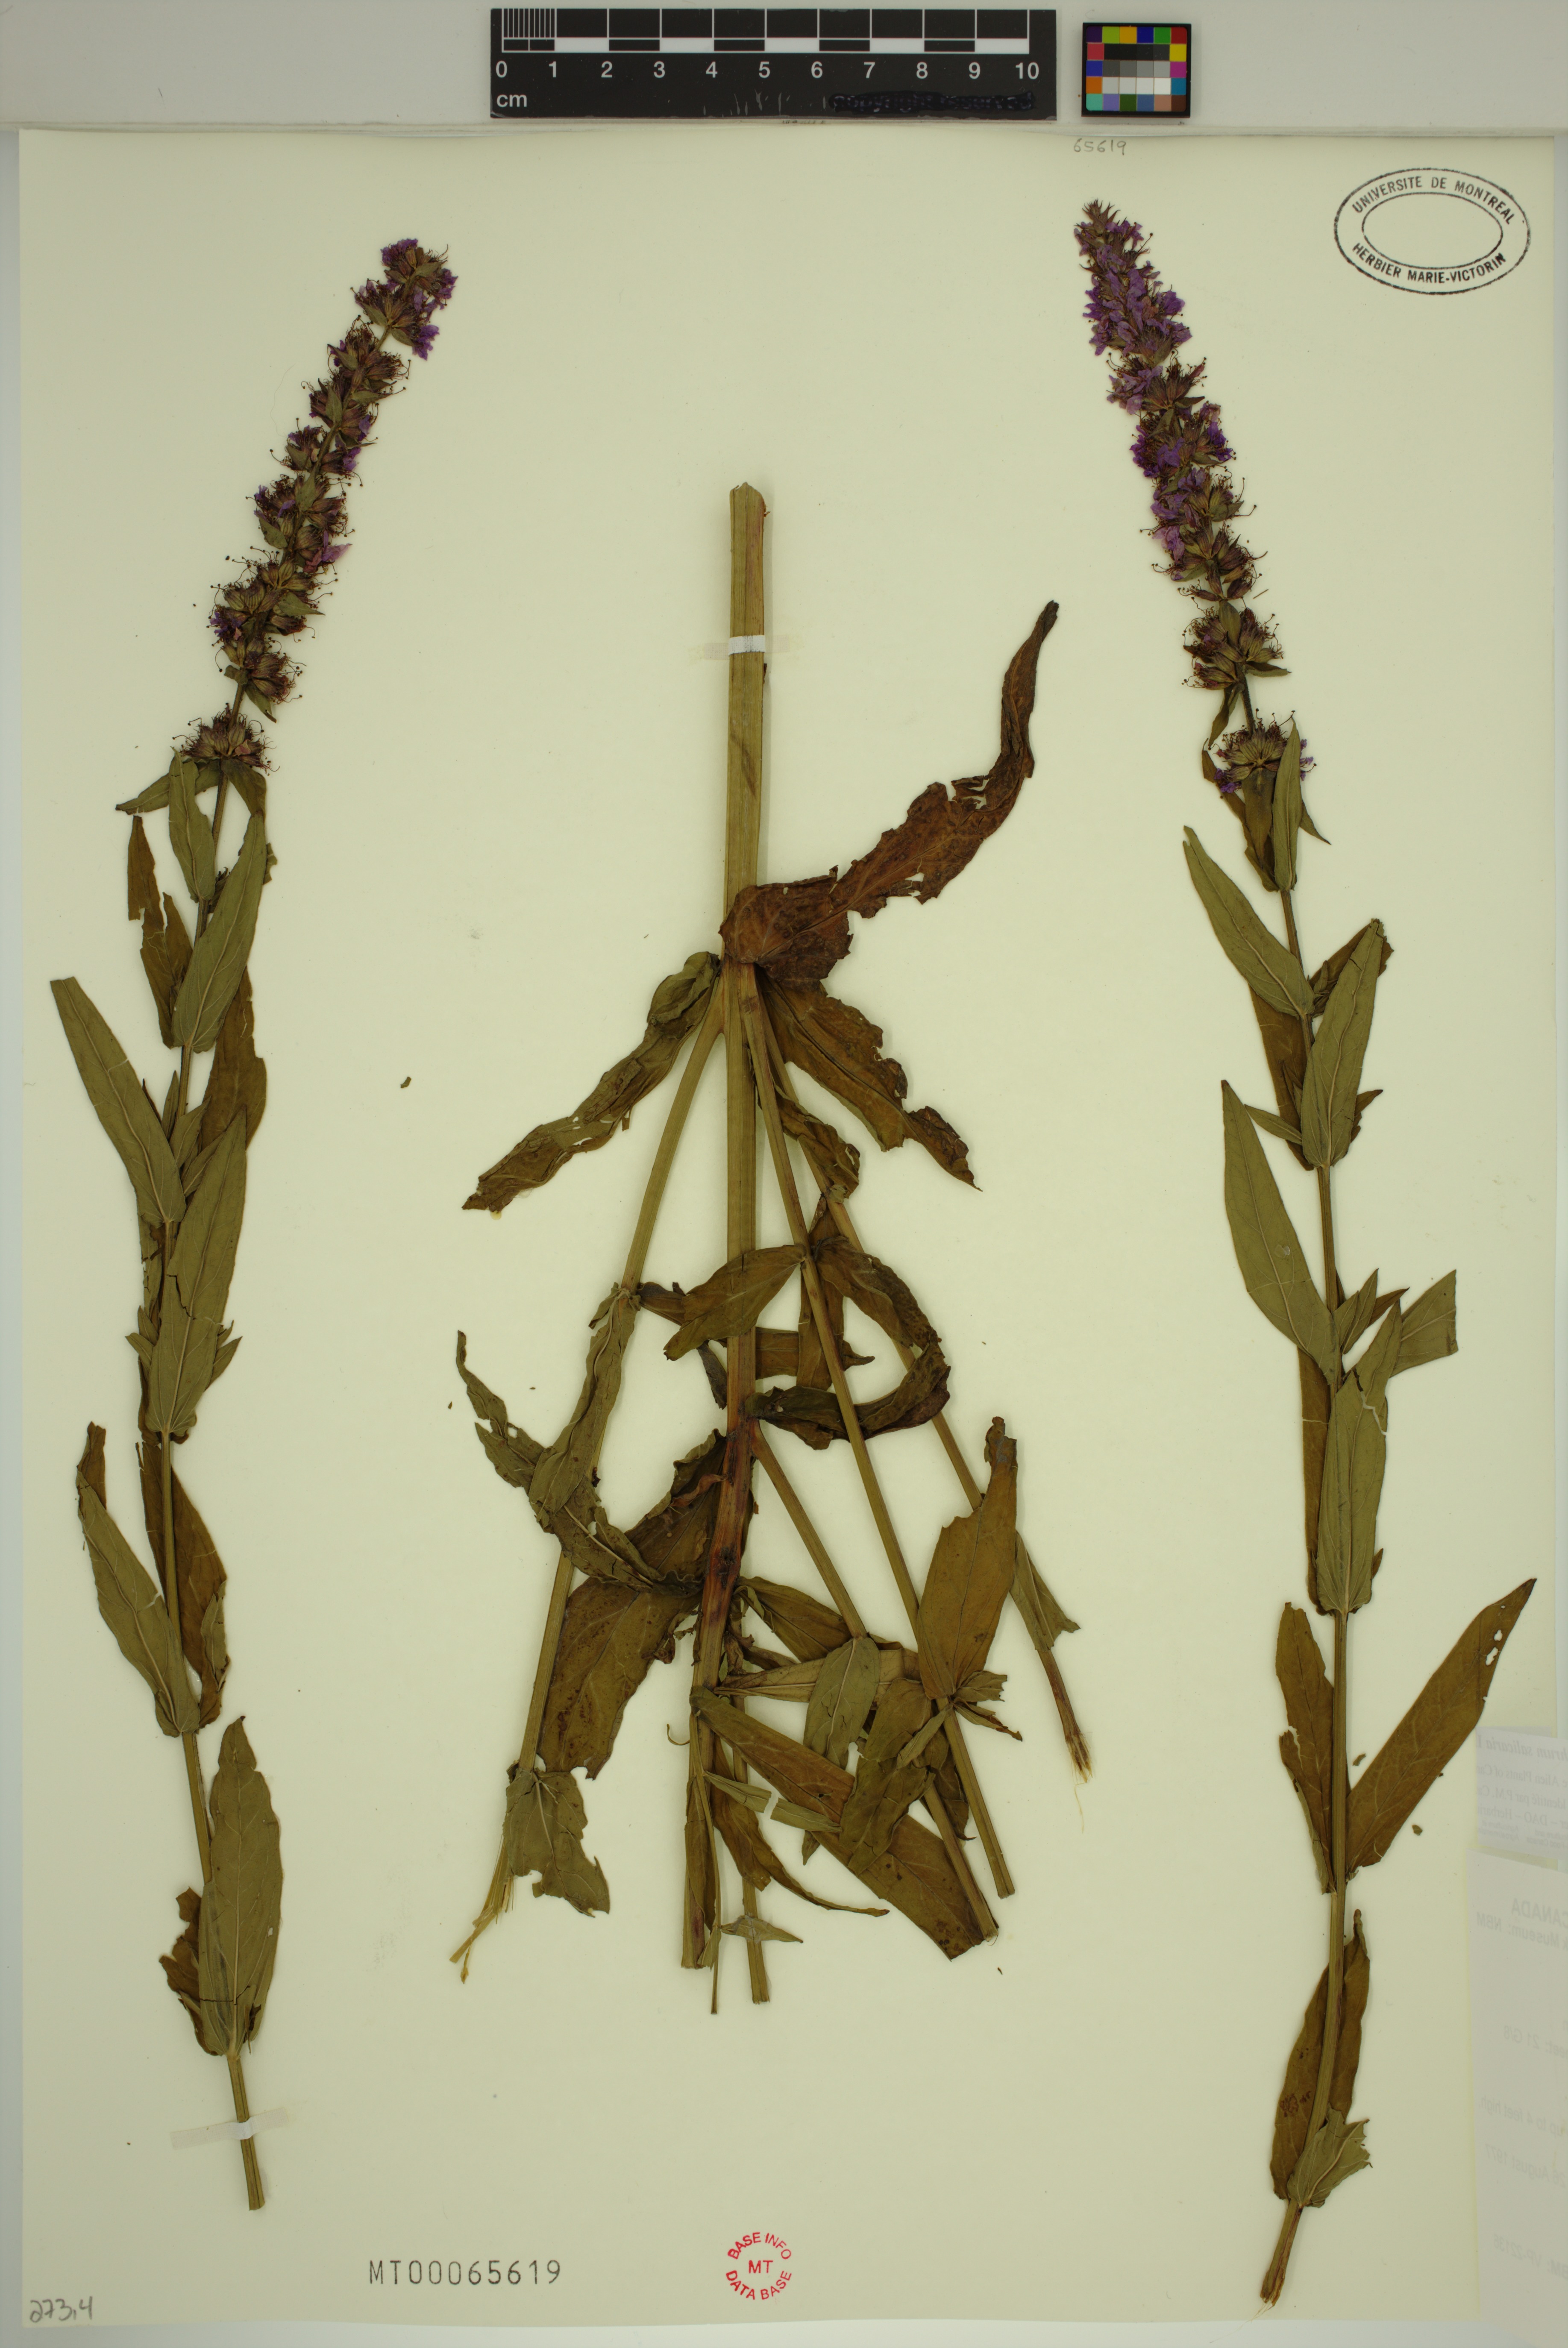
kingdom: Plantae
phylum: Tracheophyta
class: Magnoliopsida
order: Myrtales
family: Lythraceae
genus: Lythrum
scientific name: Lythrum salicaria
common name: Purple loosestrife
